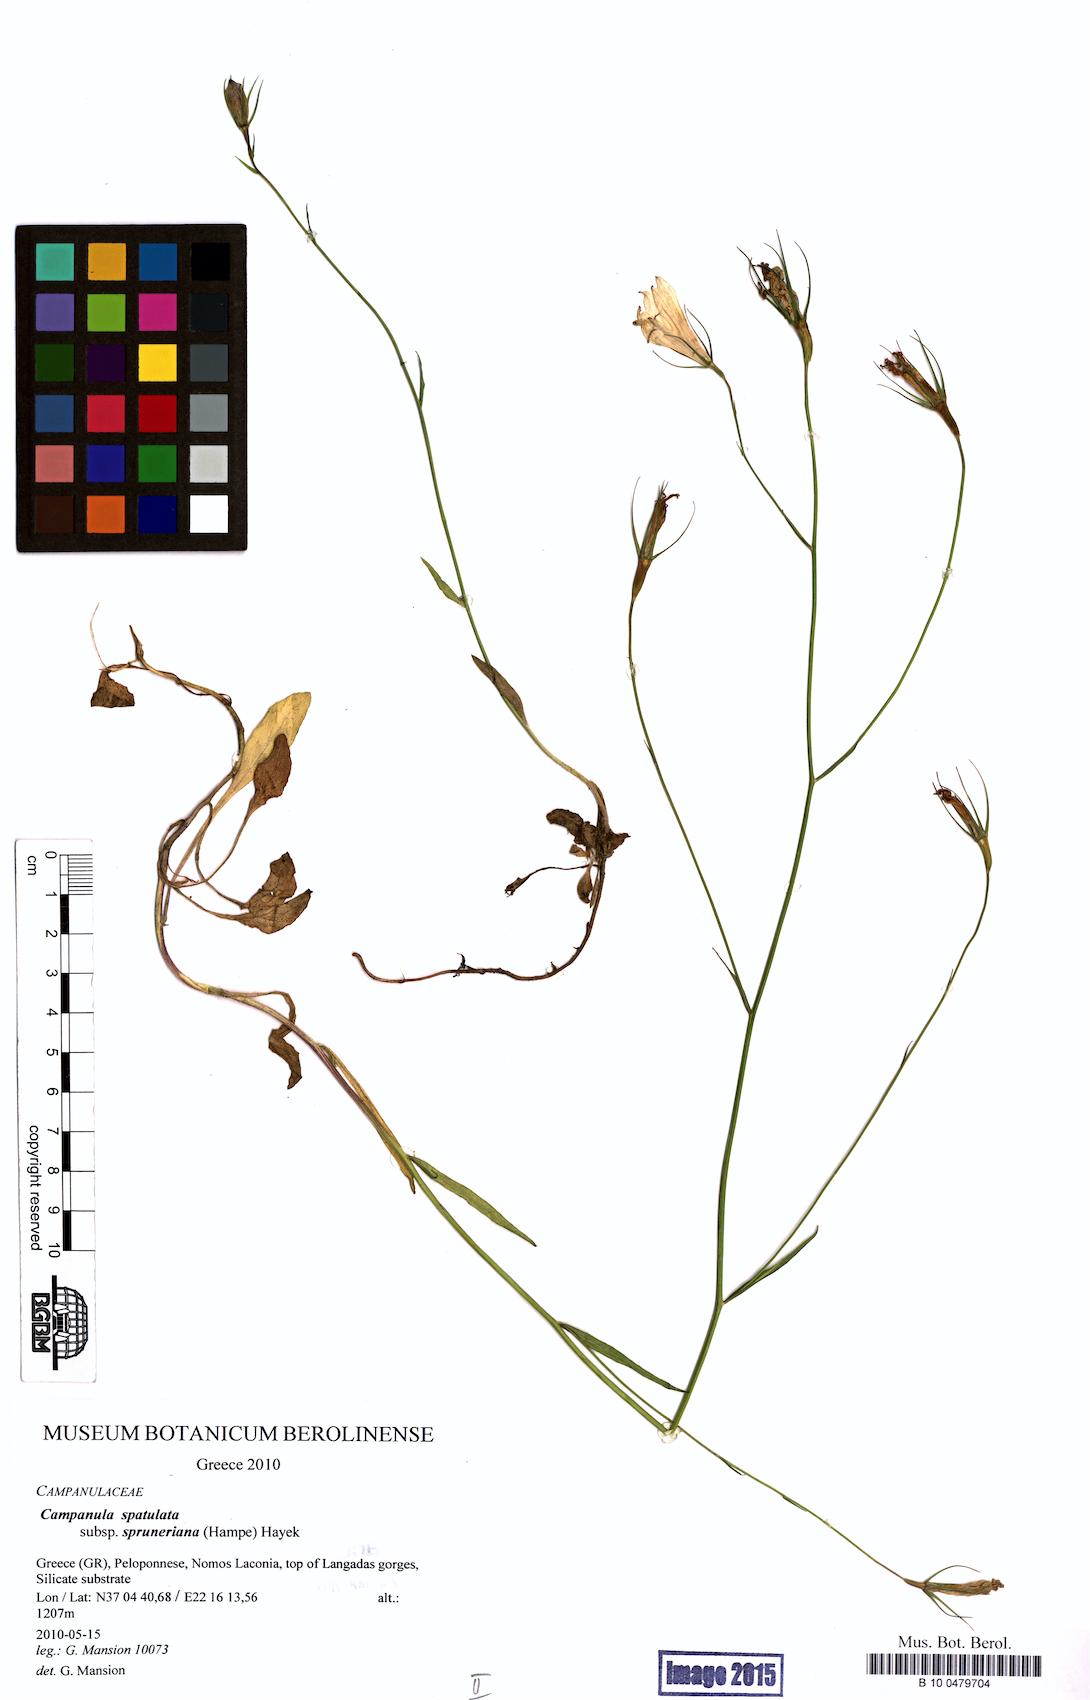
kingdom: Plantae
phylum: Tracheophyta
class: Magnoliopsida
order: Asterales
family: Campanulaceae
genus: Campanula
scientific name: Campanula spatulata
